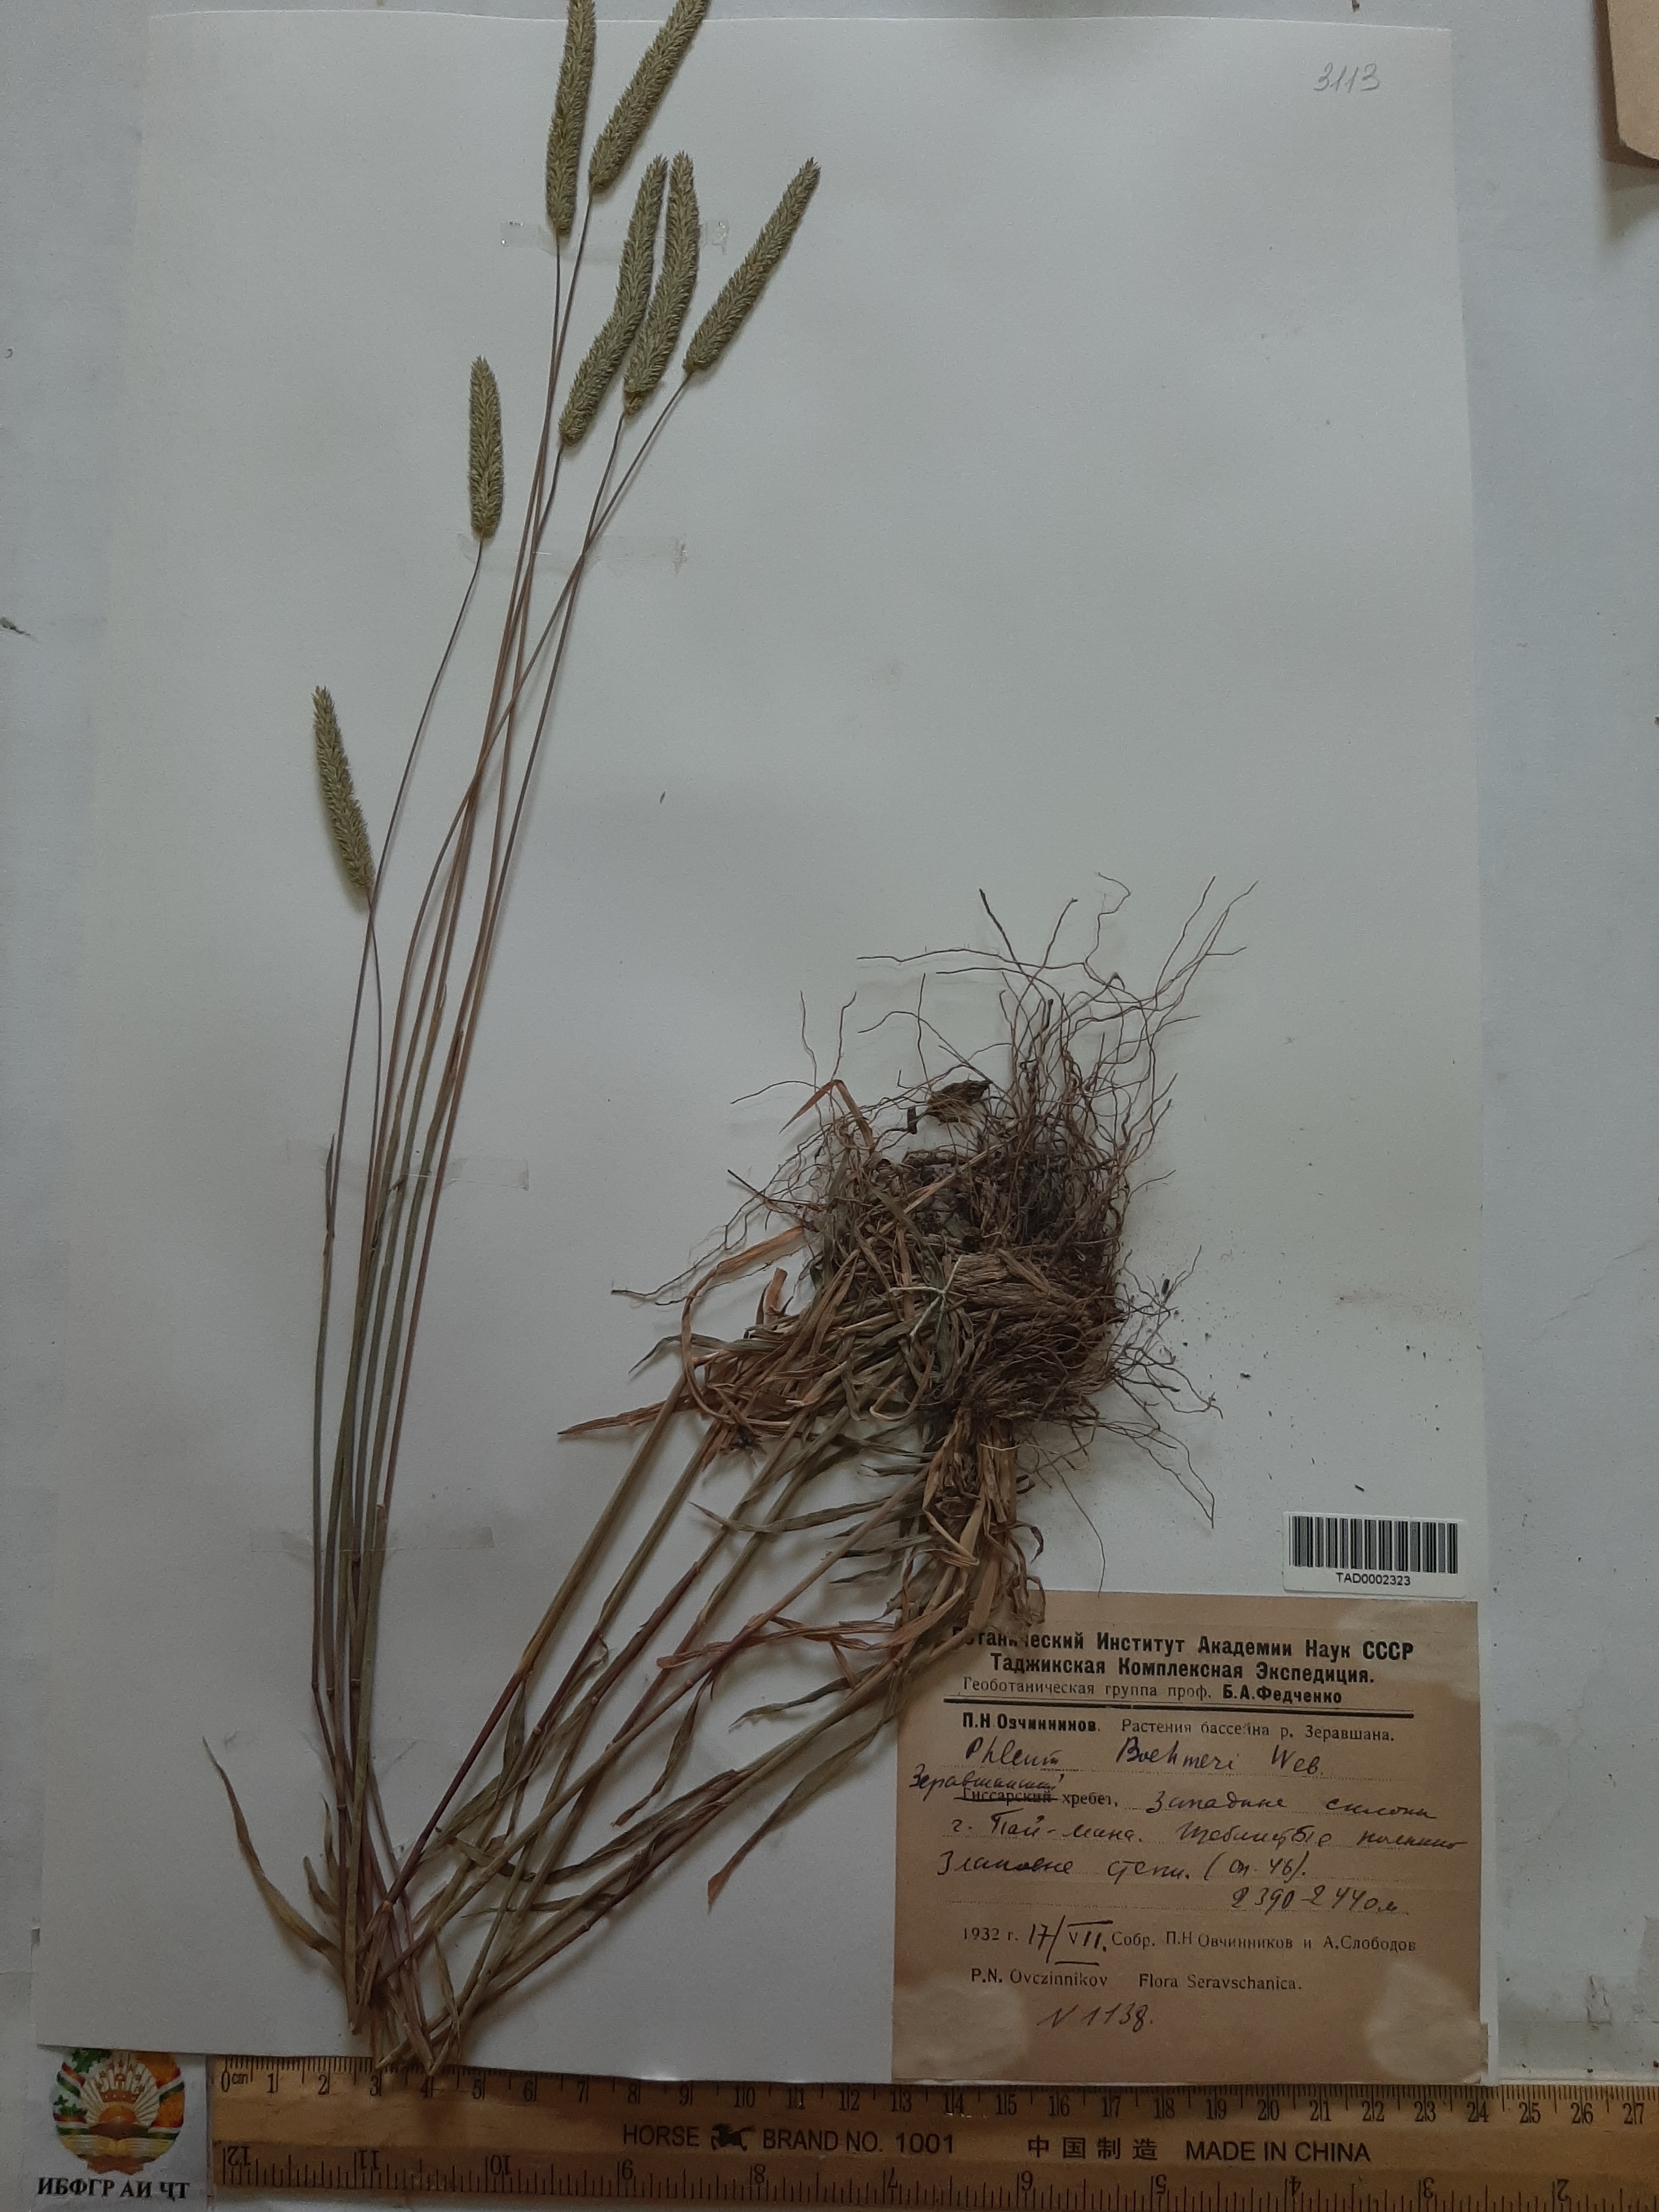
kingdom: Plantae
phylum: Tracheophyta
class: Liliopsida
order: Poales
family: Poaceae
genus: Phleum
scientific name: Phleum phleoides
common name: Purple-stem cat's-tail
